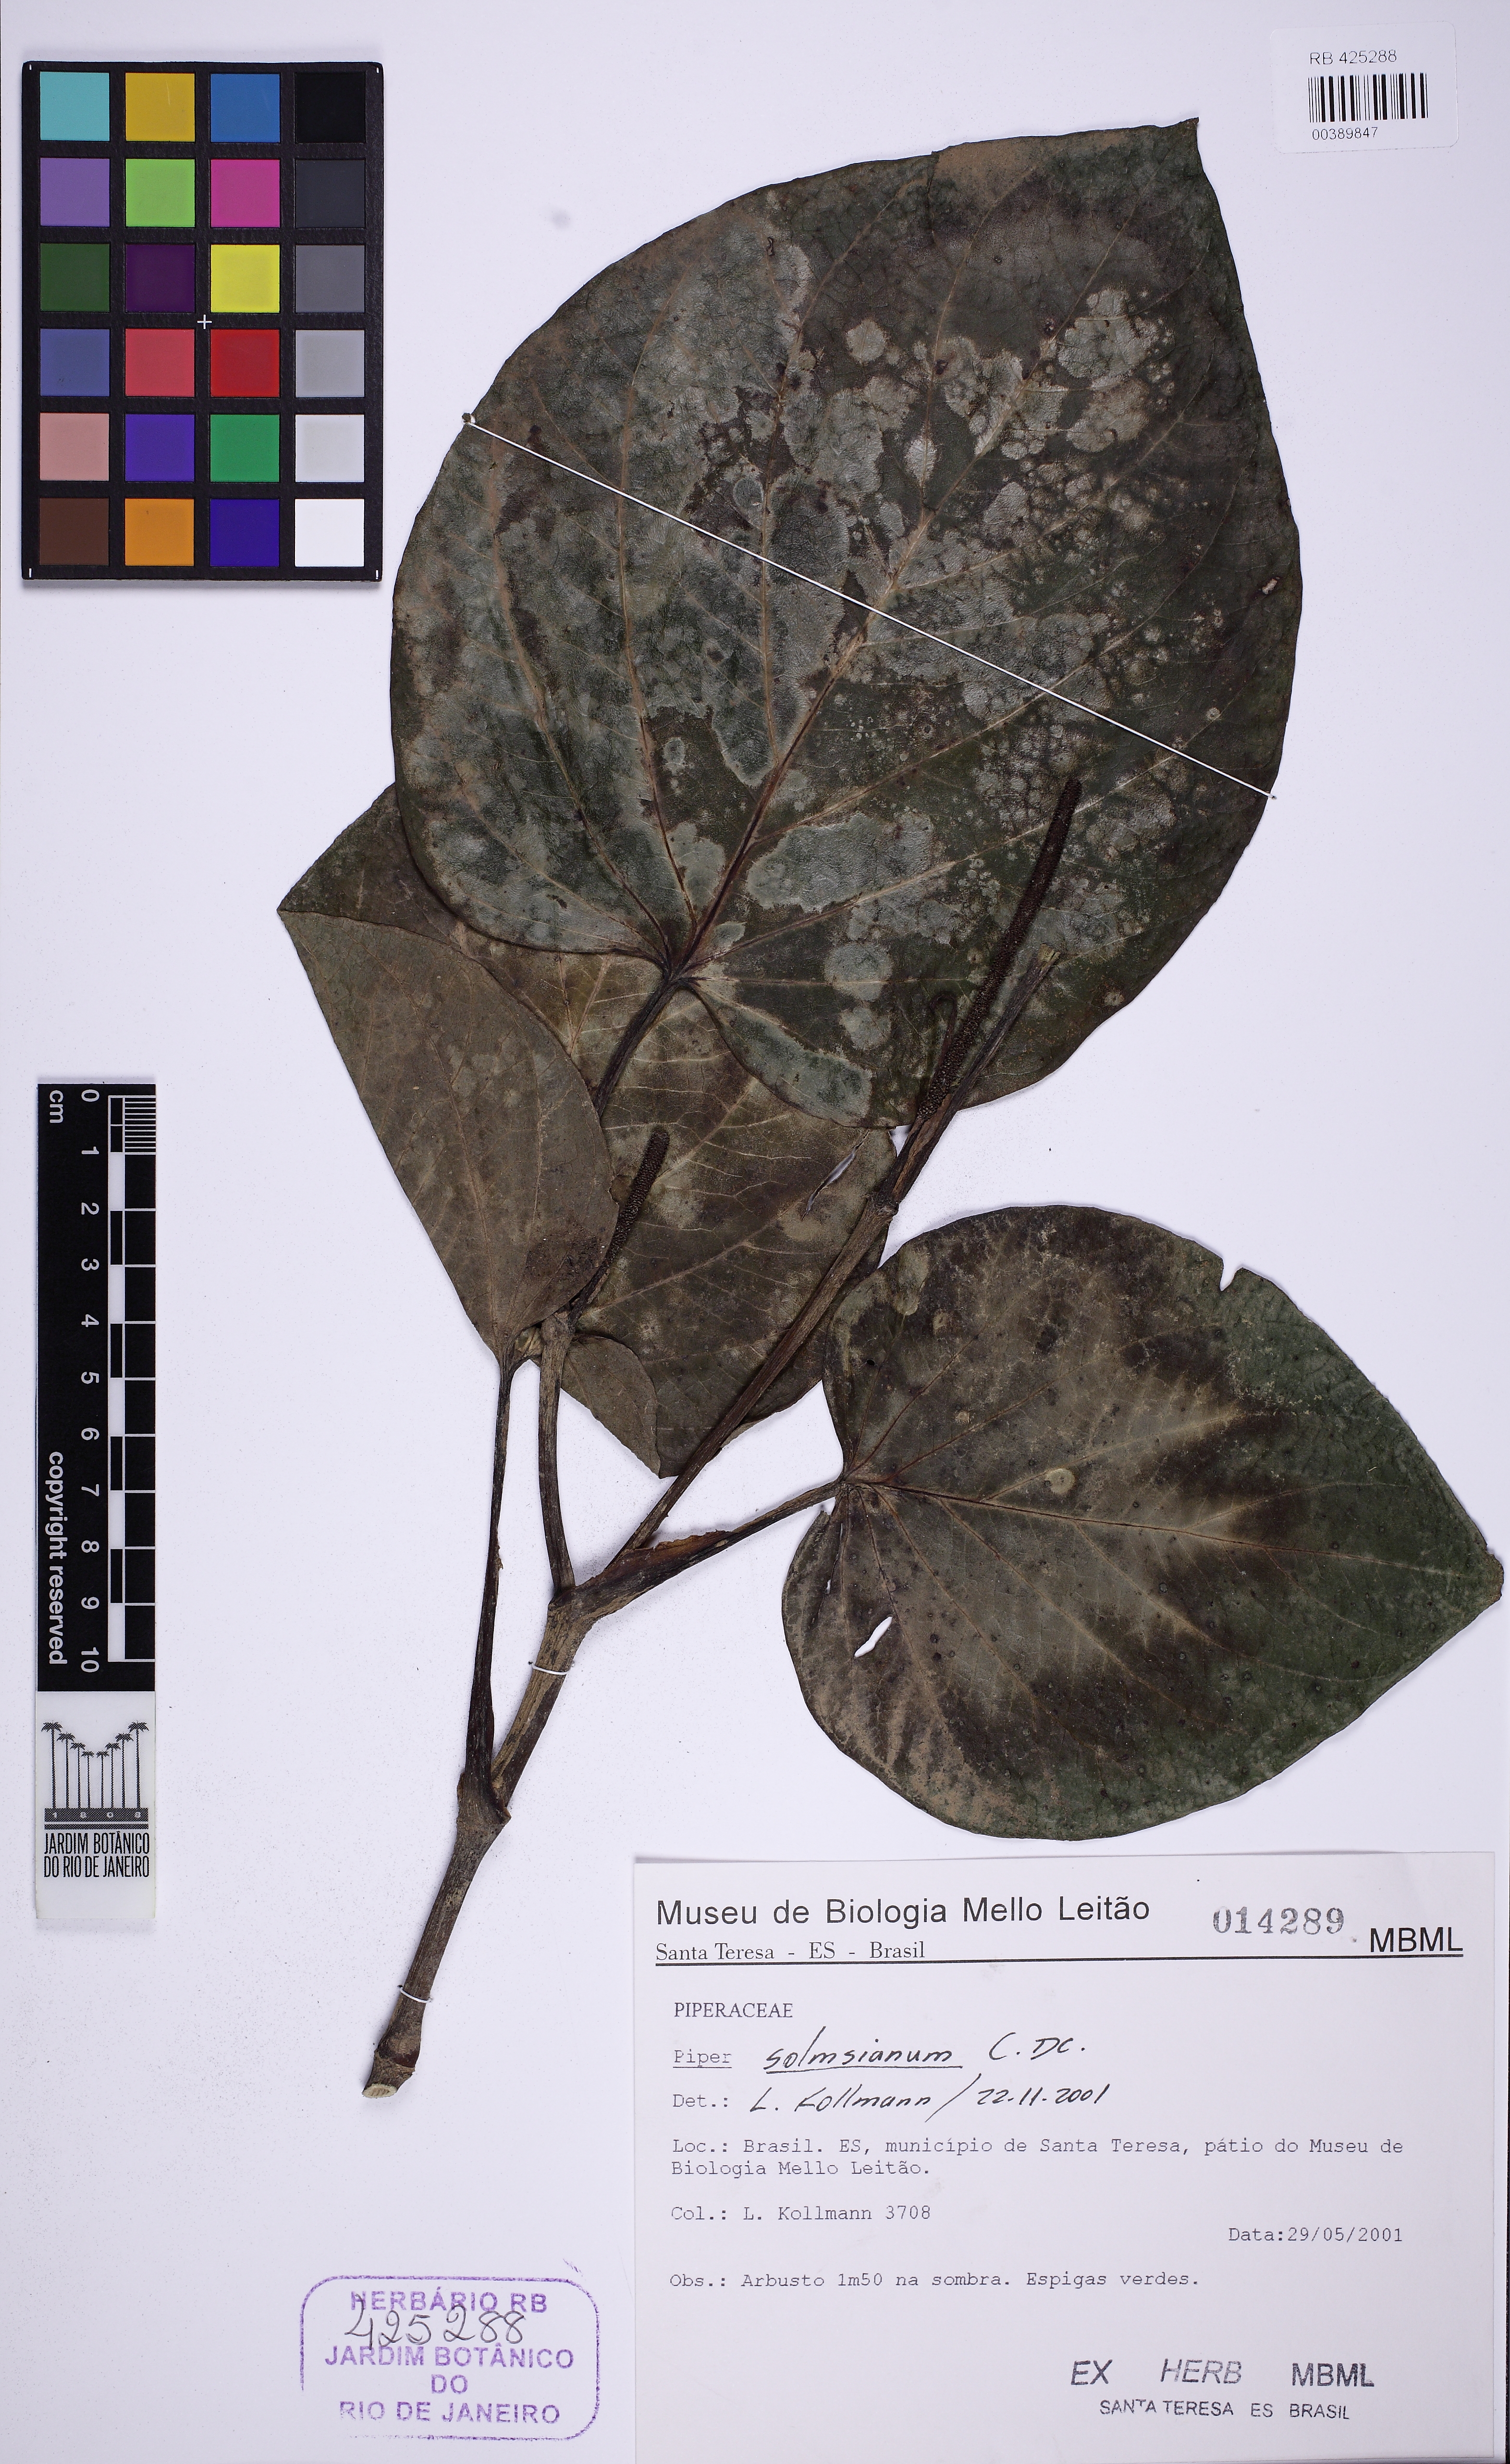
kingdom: Plantae
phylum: Tracheophyta
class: Magnoliopsida
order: Piperales
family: Piperaceae
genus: Piper
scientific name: Piper schenckii
